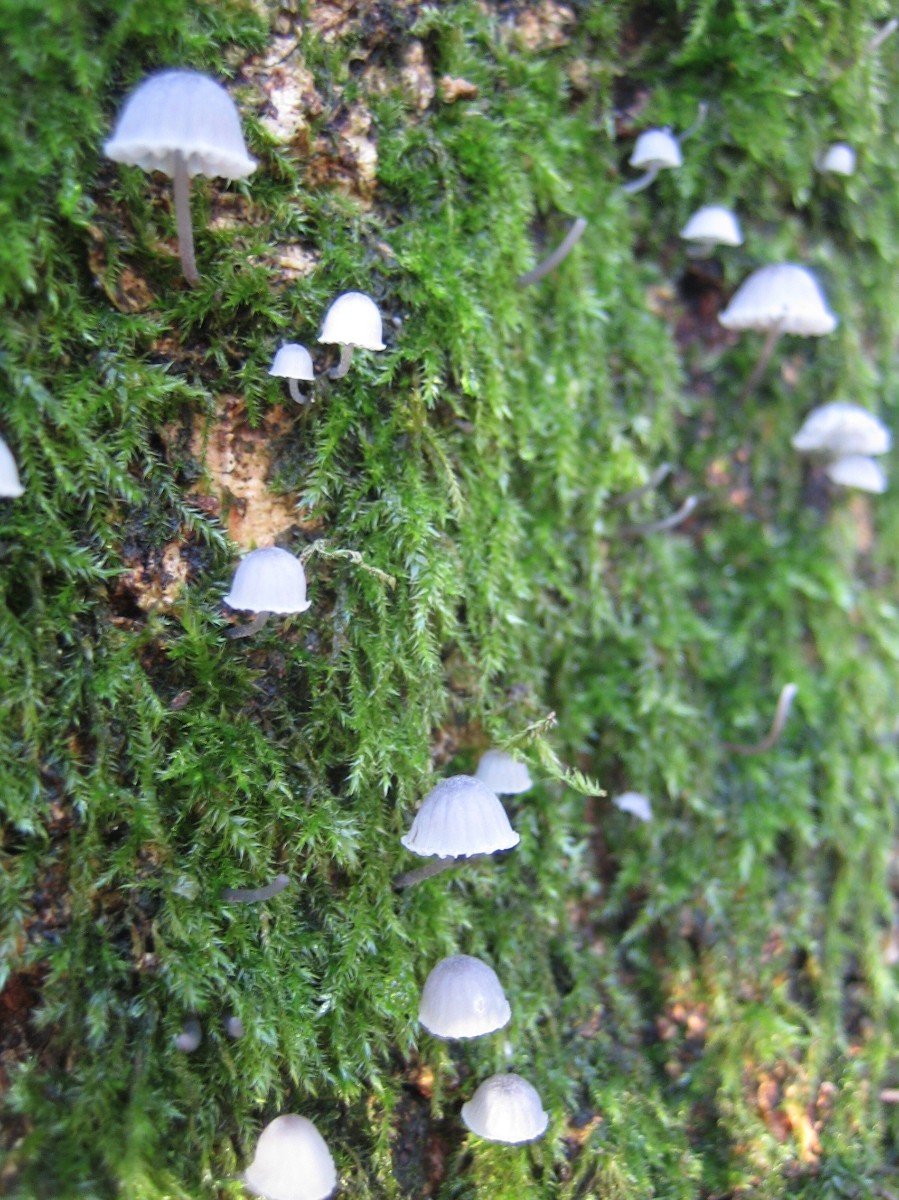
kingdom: Fungi
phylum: Basidiomycota
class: Agaricomycetes
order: Agaricales
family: Mycenaceae
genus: Mycena
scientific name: Mycena pseudocorticola
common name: gråblå bark-huesvamp
